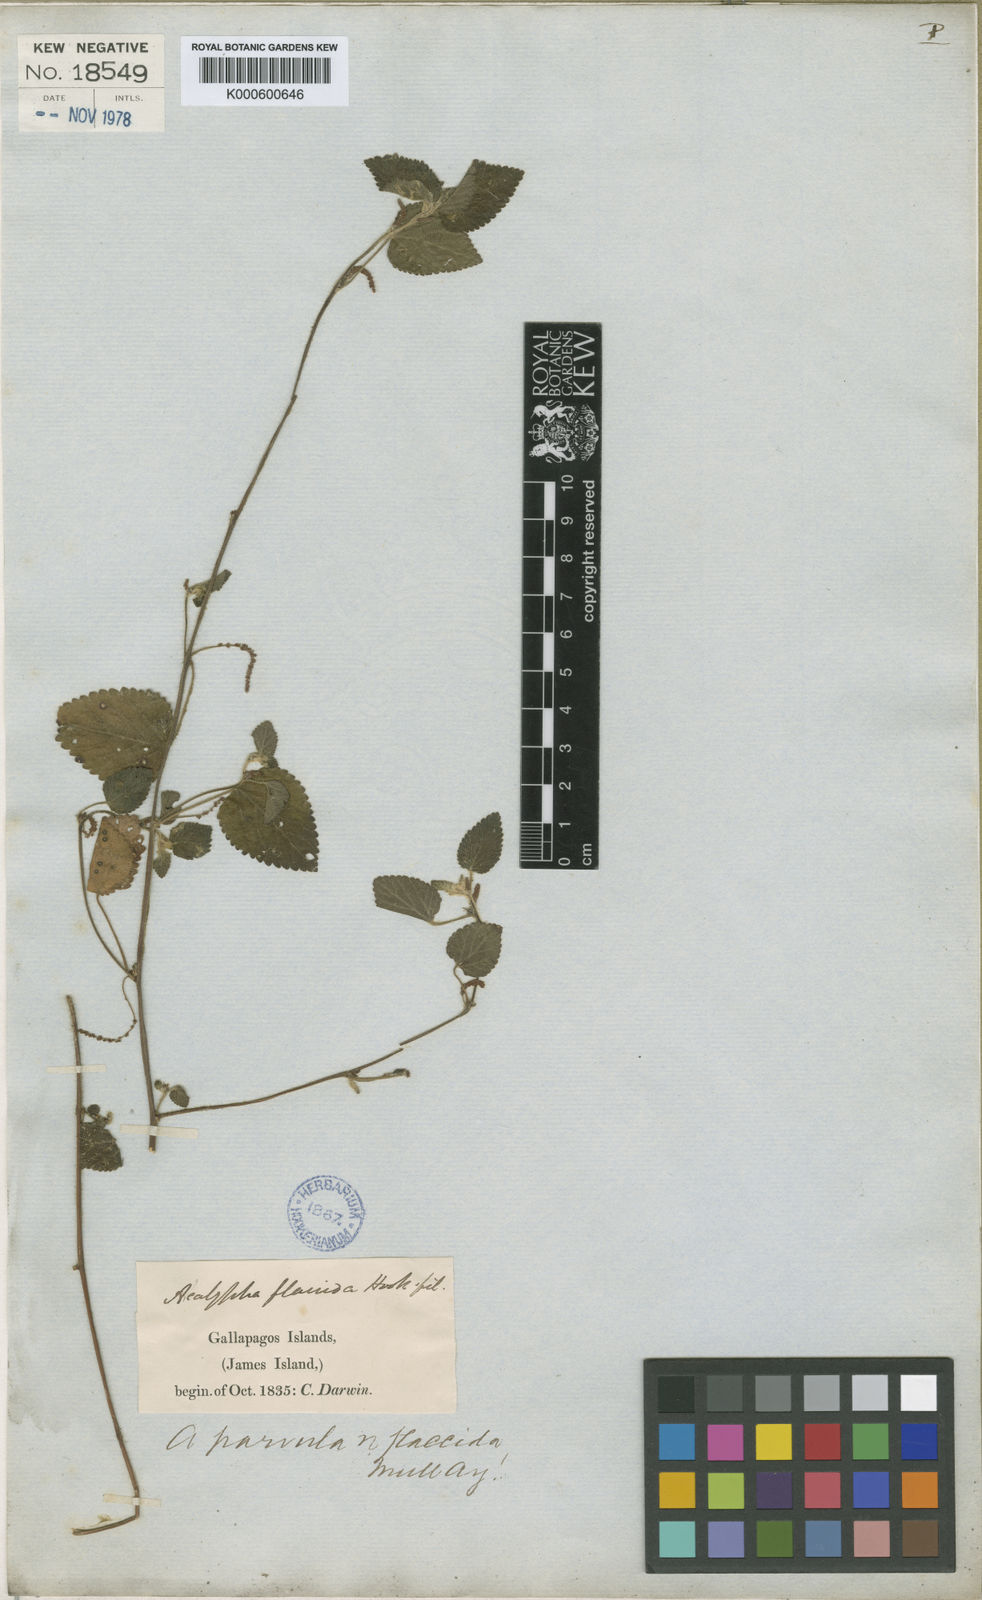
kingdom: Plantae
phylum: Tracheophyta
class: Magnoliopsida
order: Malpighiales
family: Euphorbiaceae
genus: Acalypha
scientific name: Acalypha parvula
